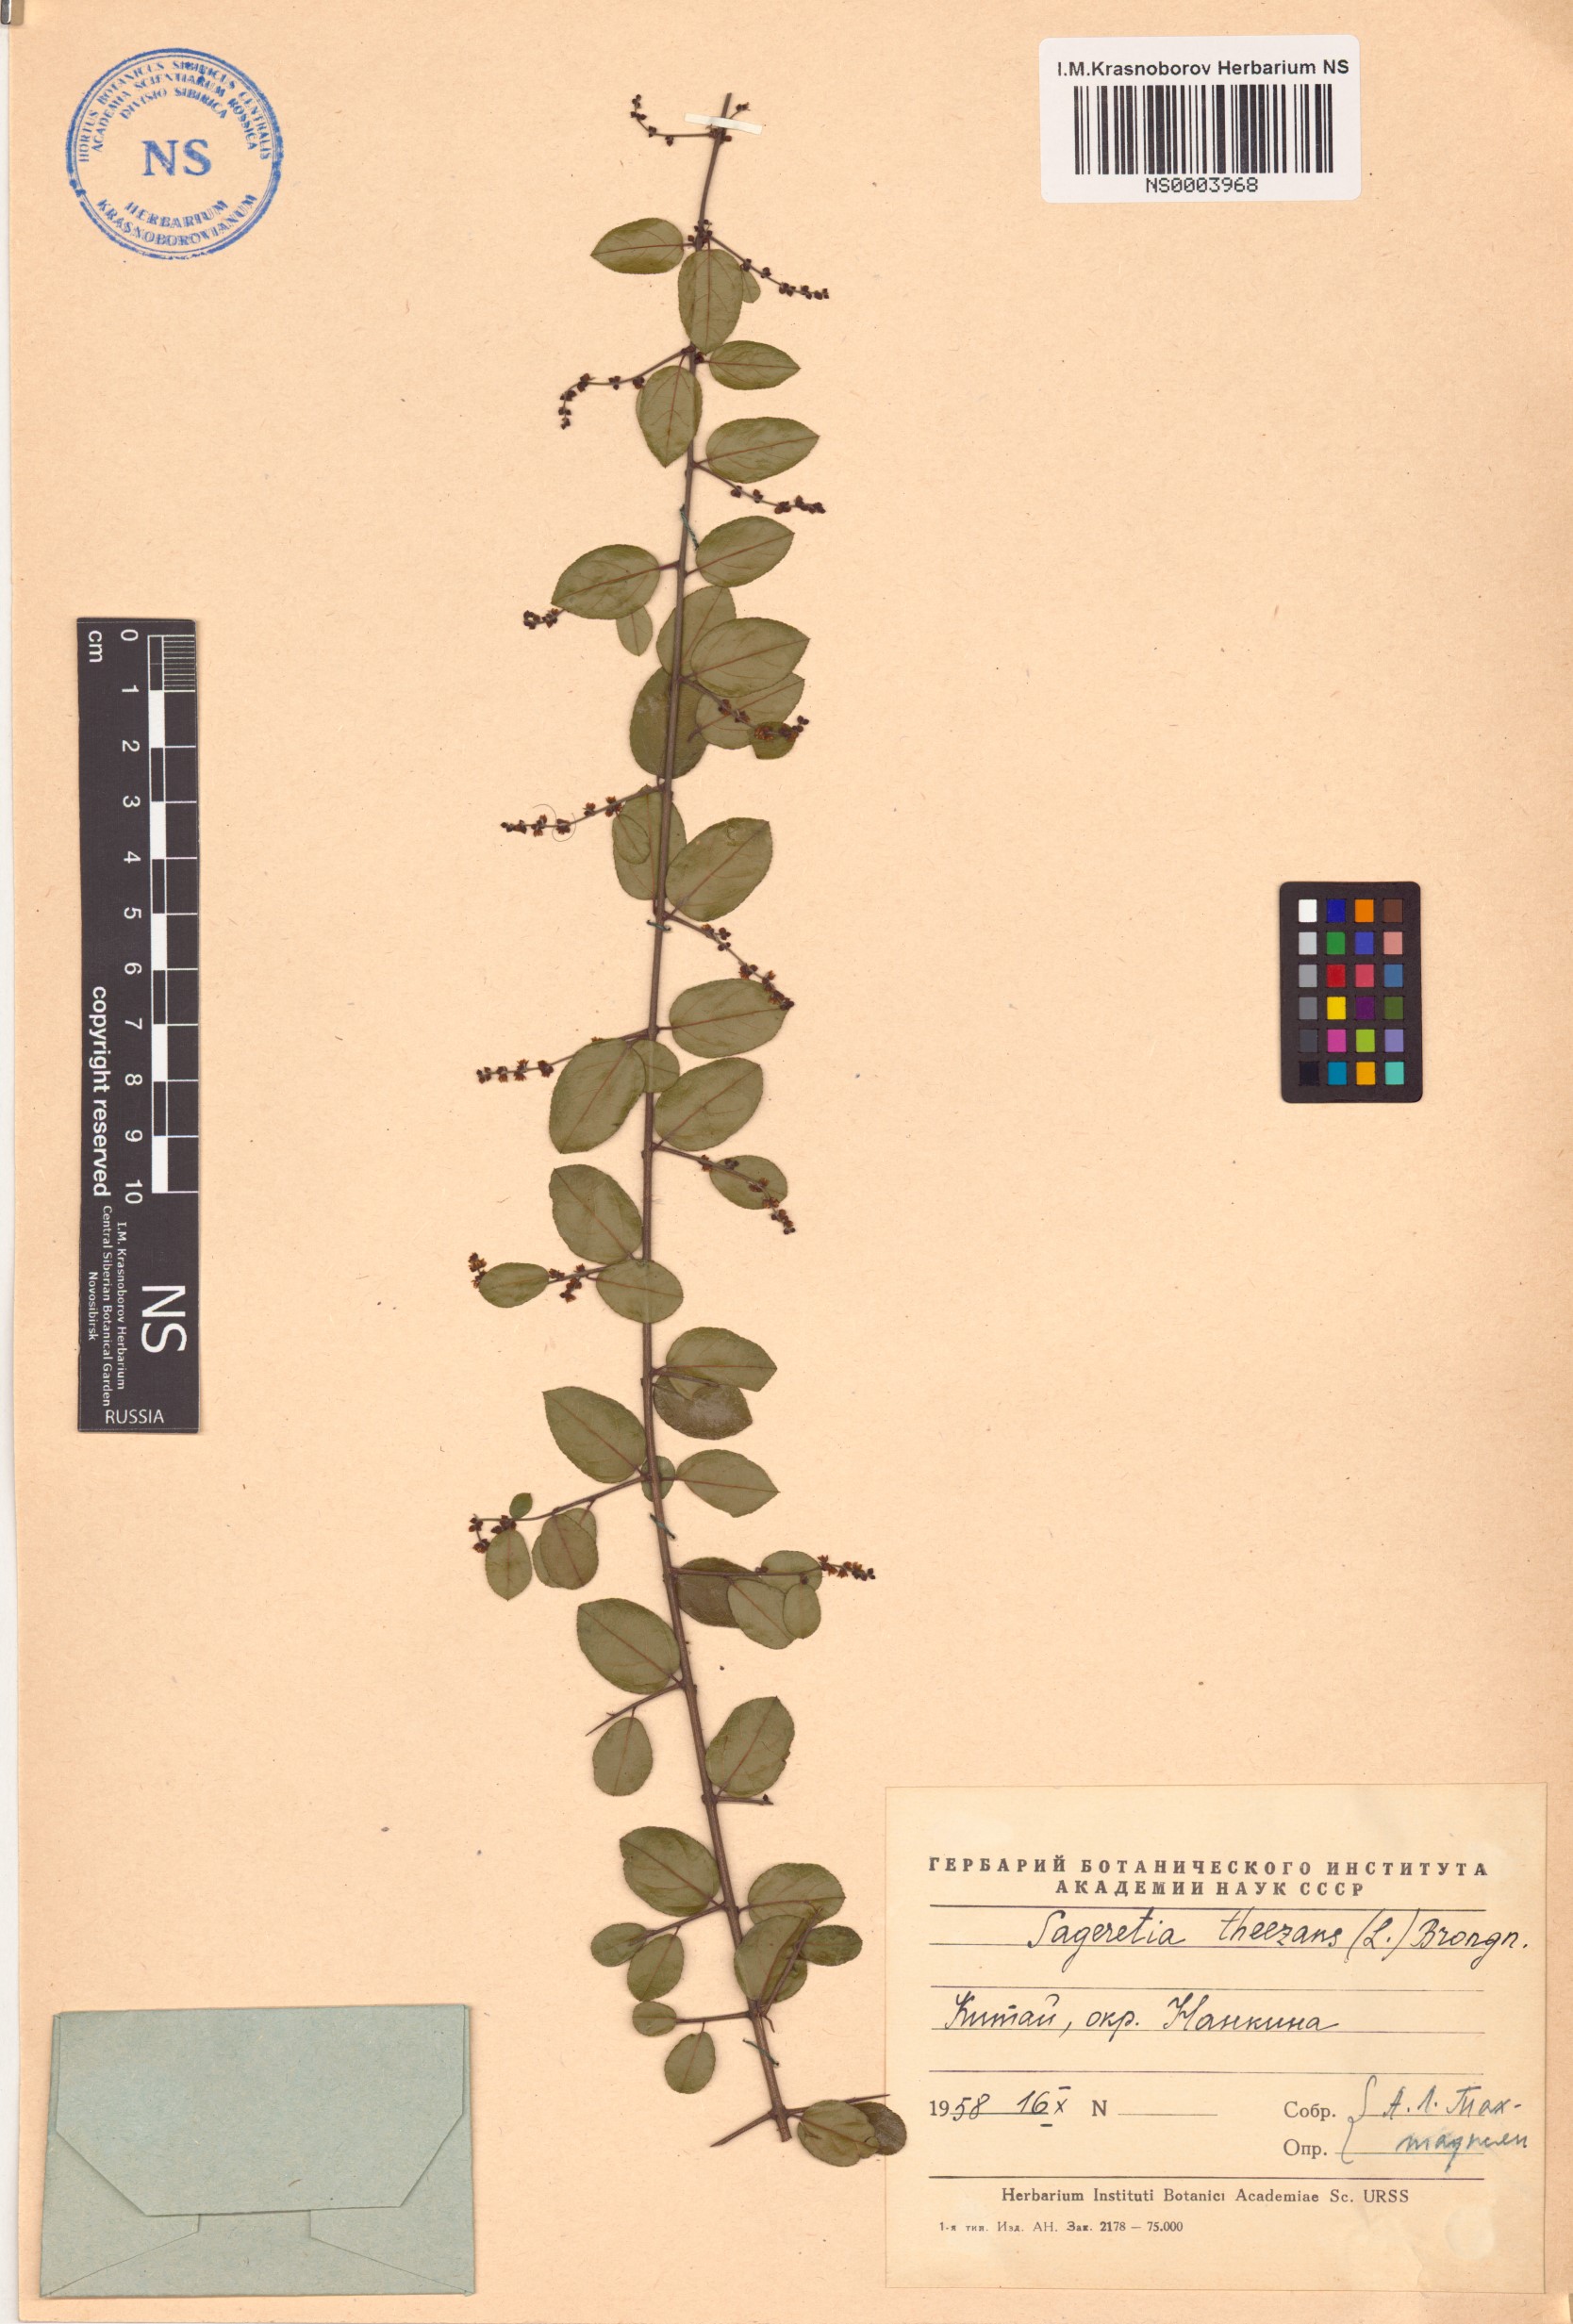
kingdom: Plantae
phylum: Tracheophyta
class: Magnoliopsida
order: Rosales
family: Rhamnaceae
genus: Sageretia
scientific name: Sageretia thea
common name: Pauper's-tea
